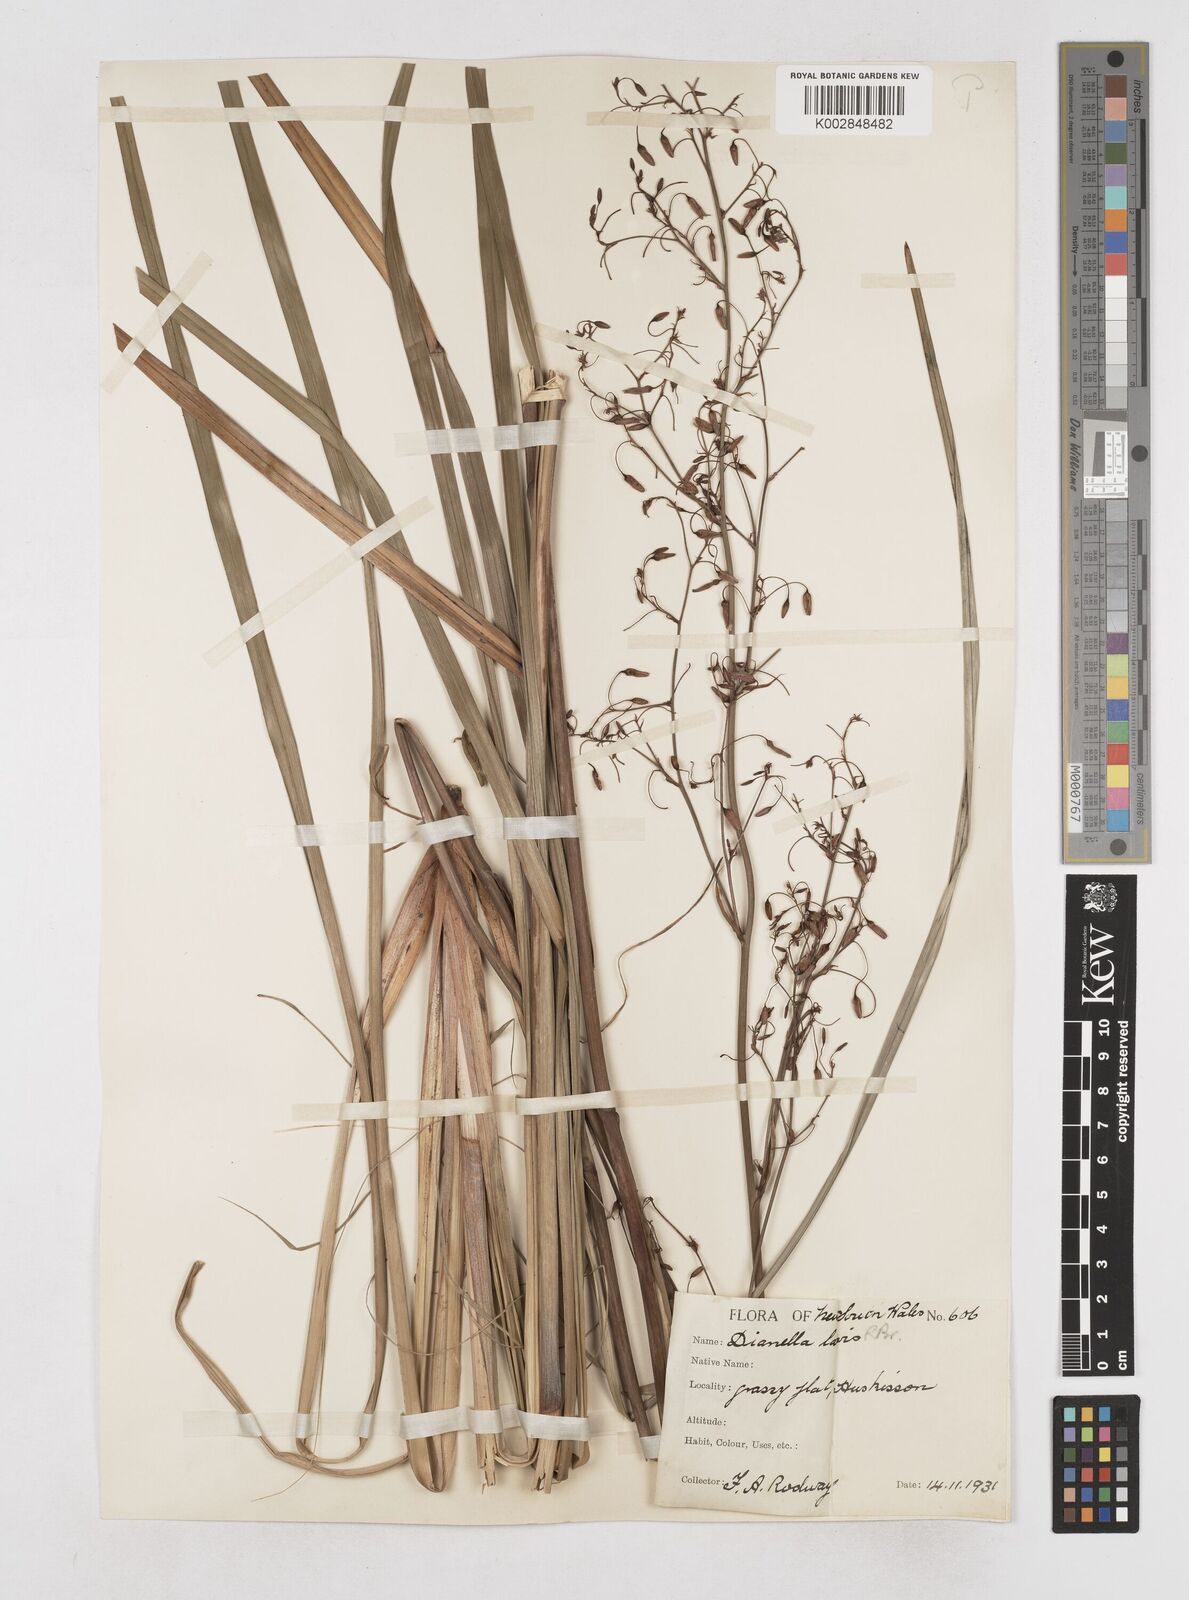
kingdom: Plantae
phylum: Tracheophyta
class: Liliopsida
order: Asparagales
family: Asphodelaceae
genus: Dianella
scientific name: Dianella longifolia
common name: Blue flax-lily
